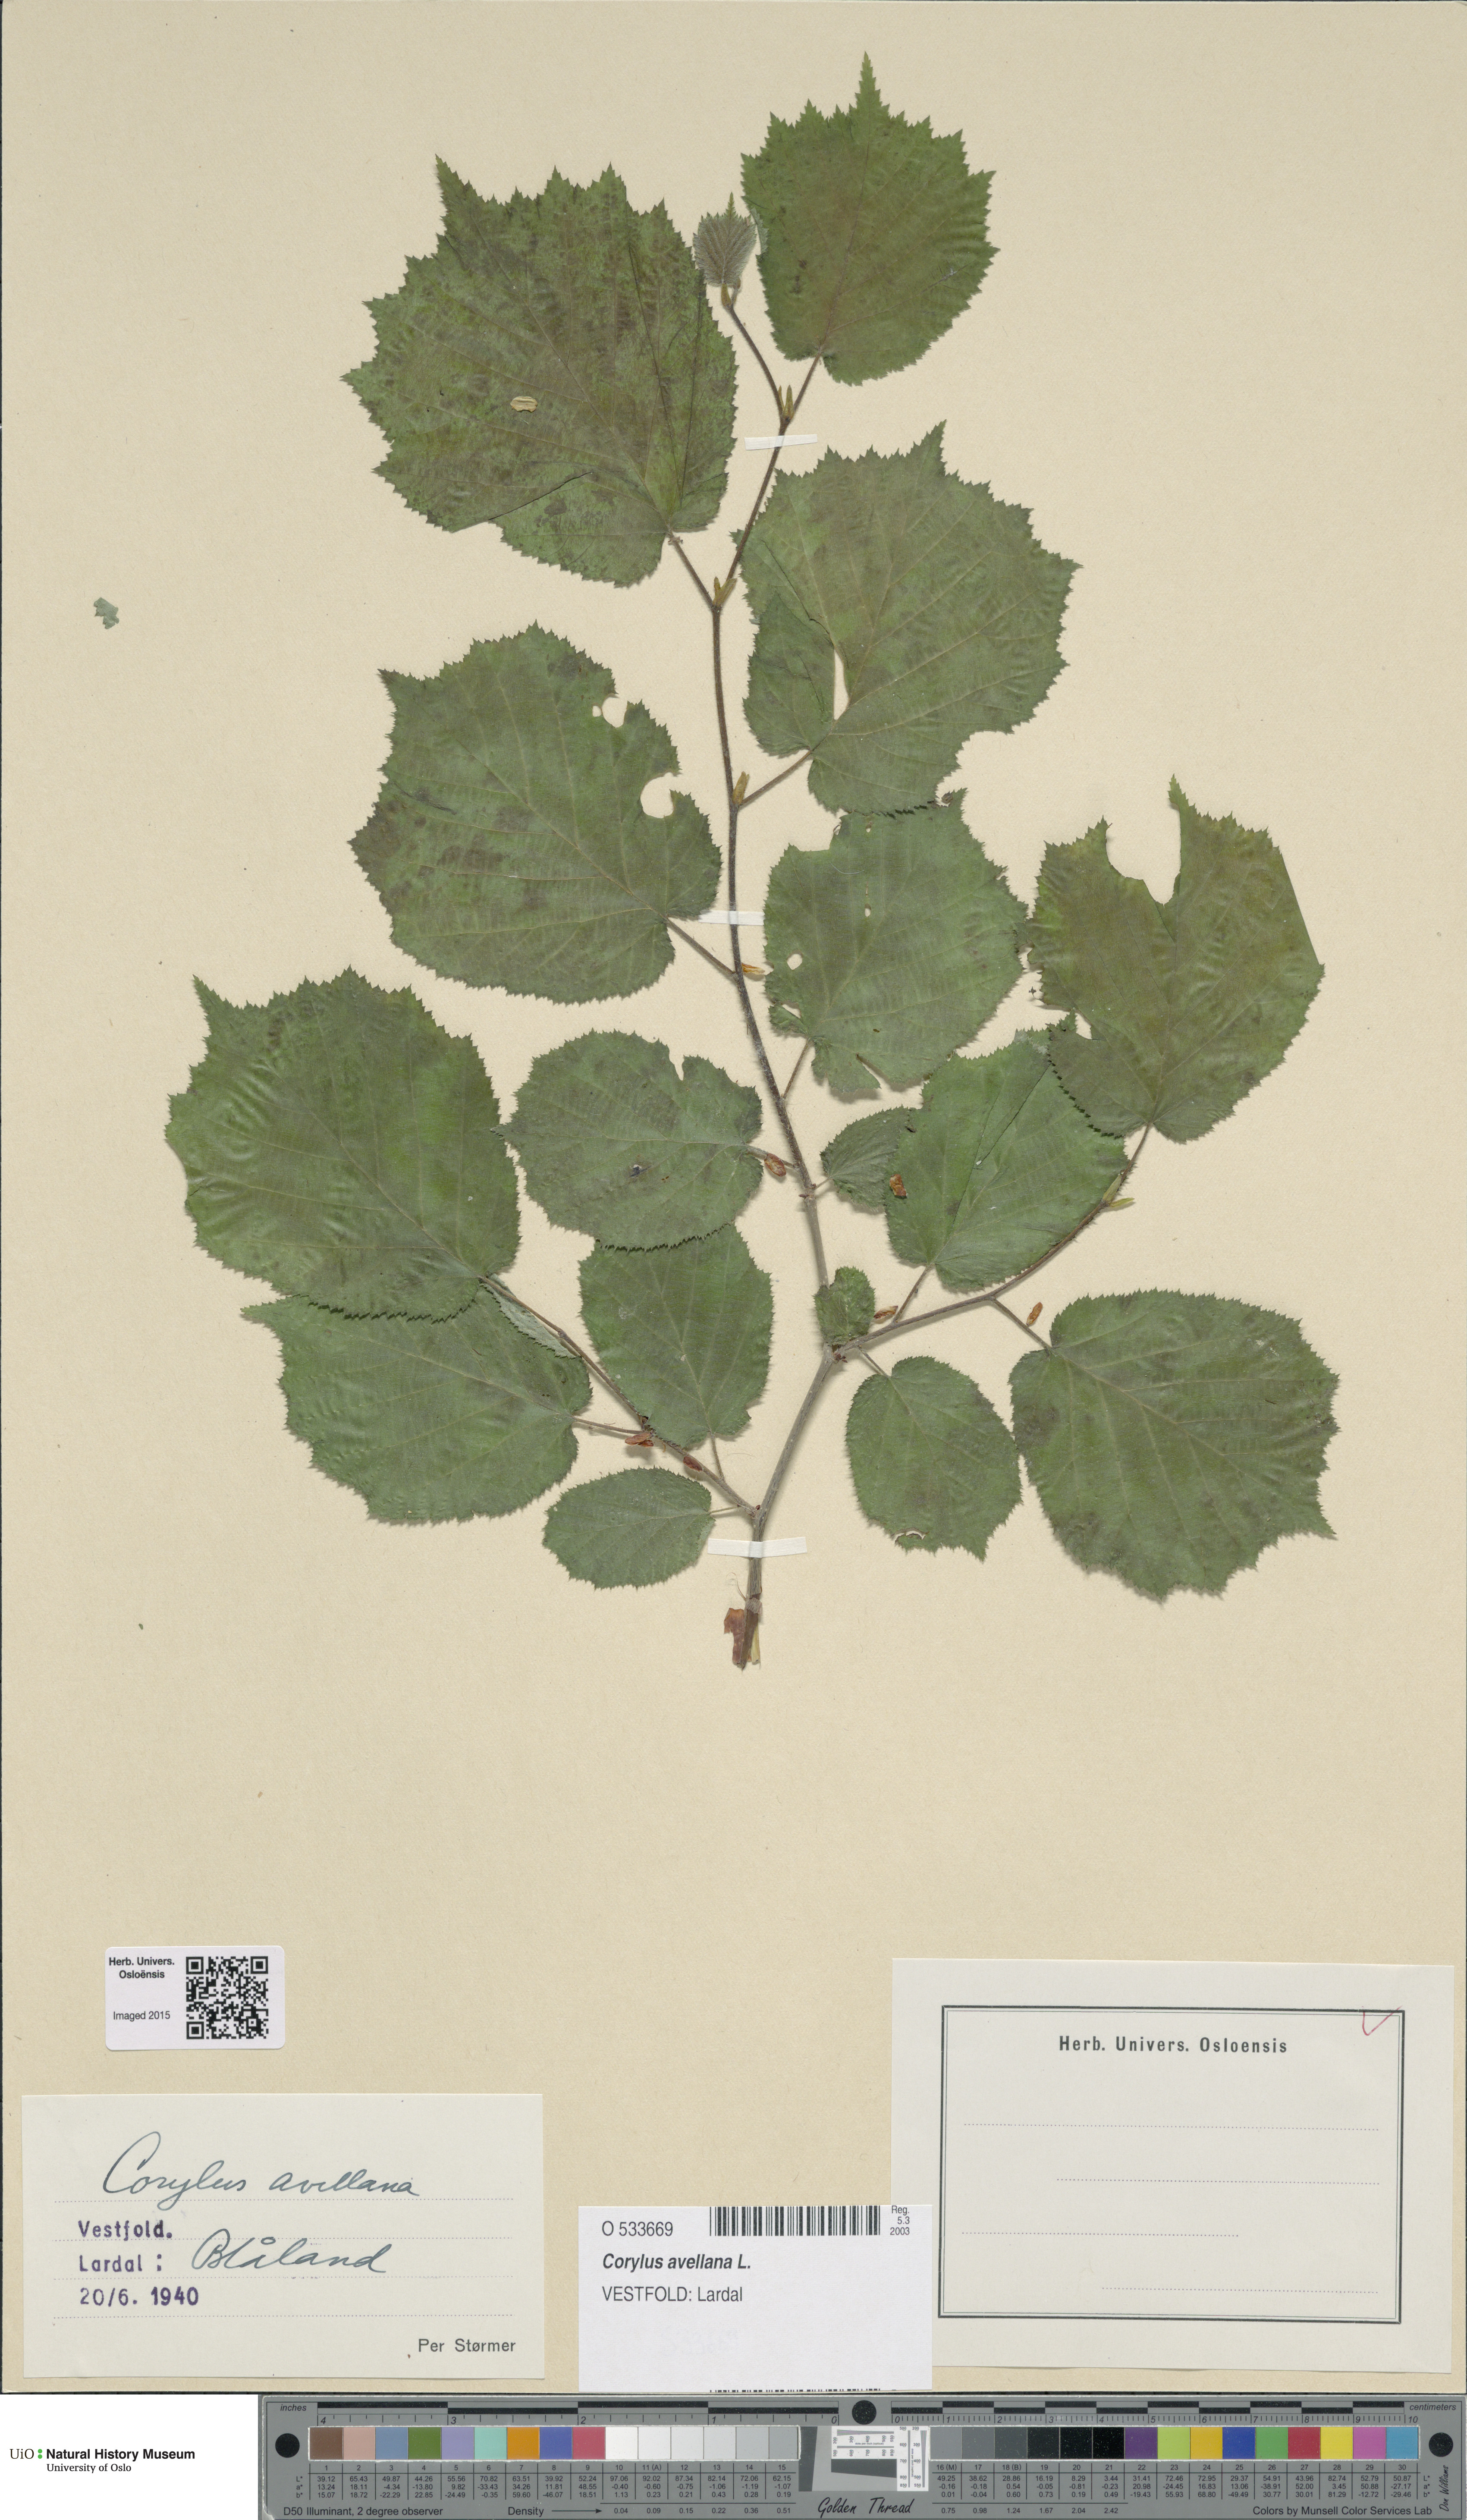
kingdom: Plantae
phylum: Tracheophyta
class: Magnoliopsida
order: Fagales
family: Betulaceae
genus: Corylus
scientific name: Corylus avellana
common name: European hazel
